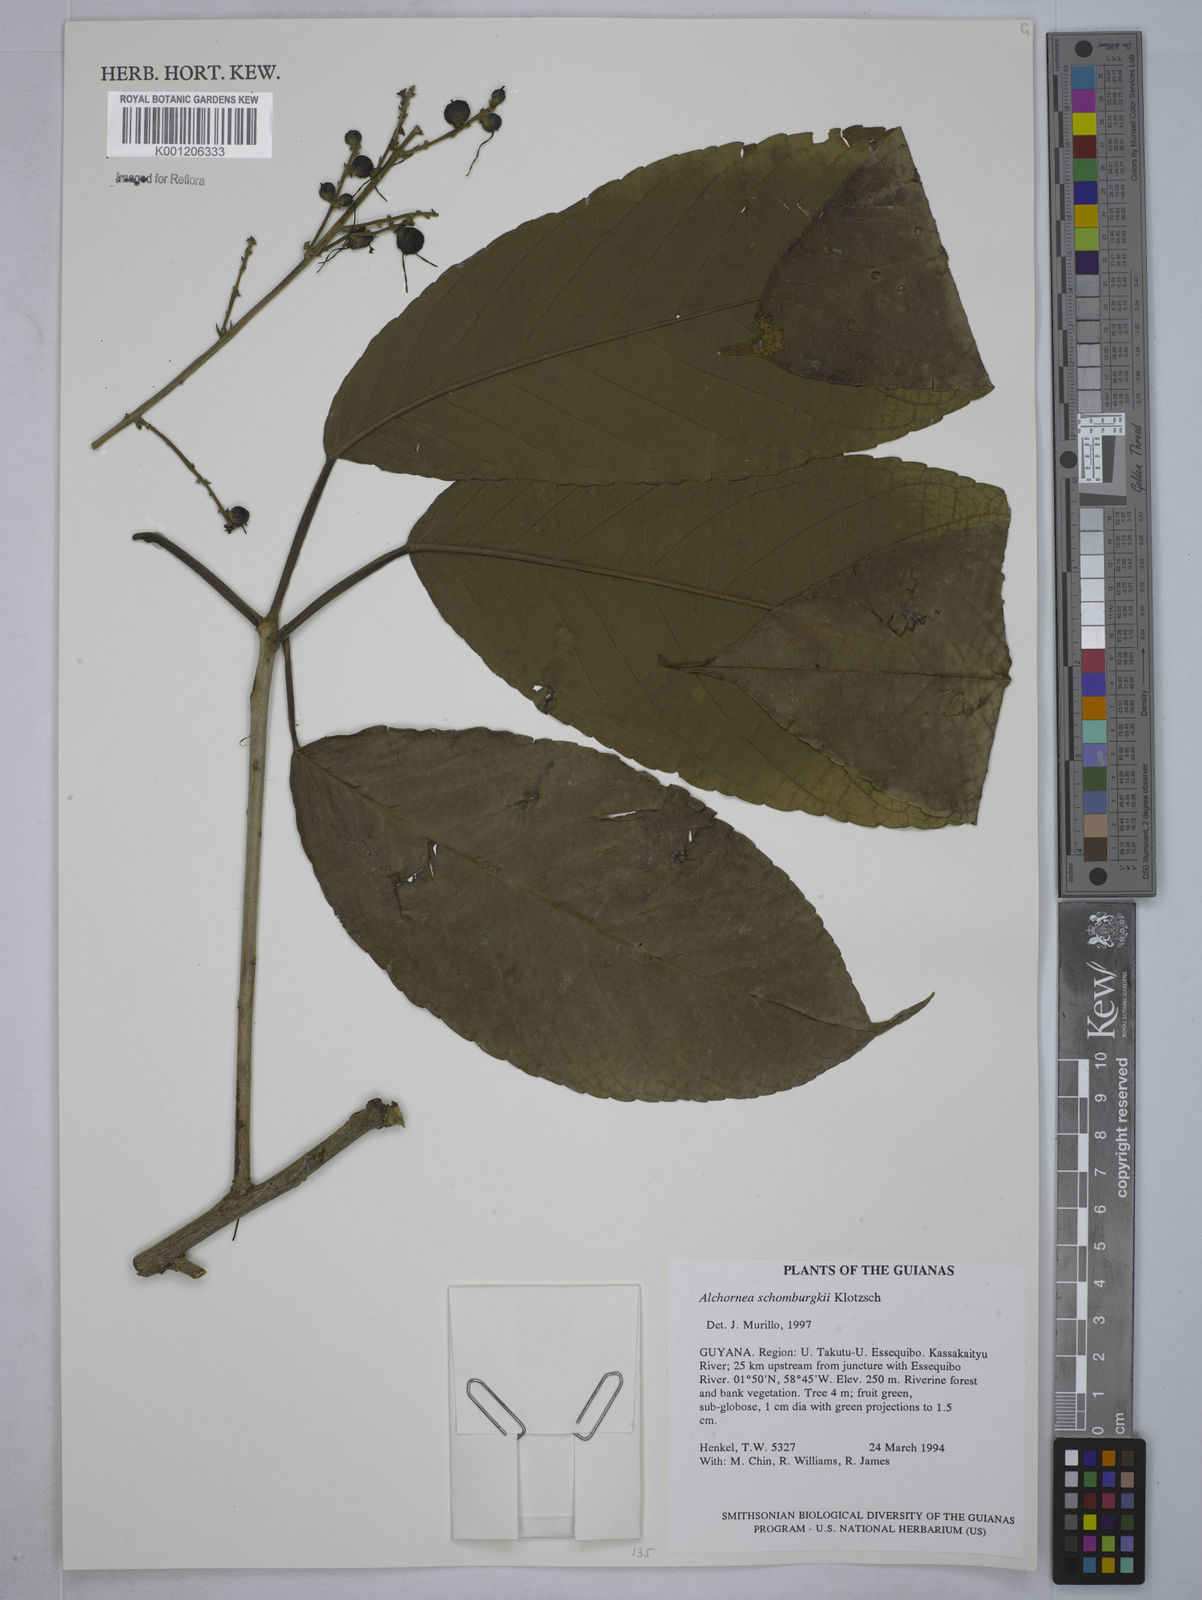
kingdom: Plantae
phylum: Tracheophyta
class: Magnoliopsida
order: Malpighiales
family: Euphorbiaceae
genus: Alchornea
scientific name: Alchornea discolor
